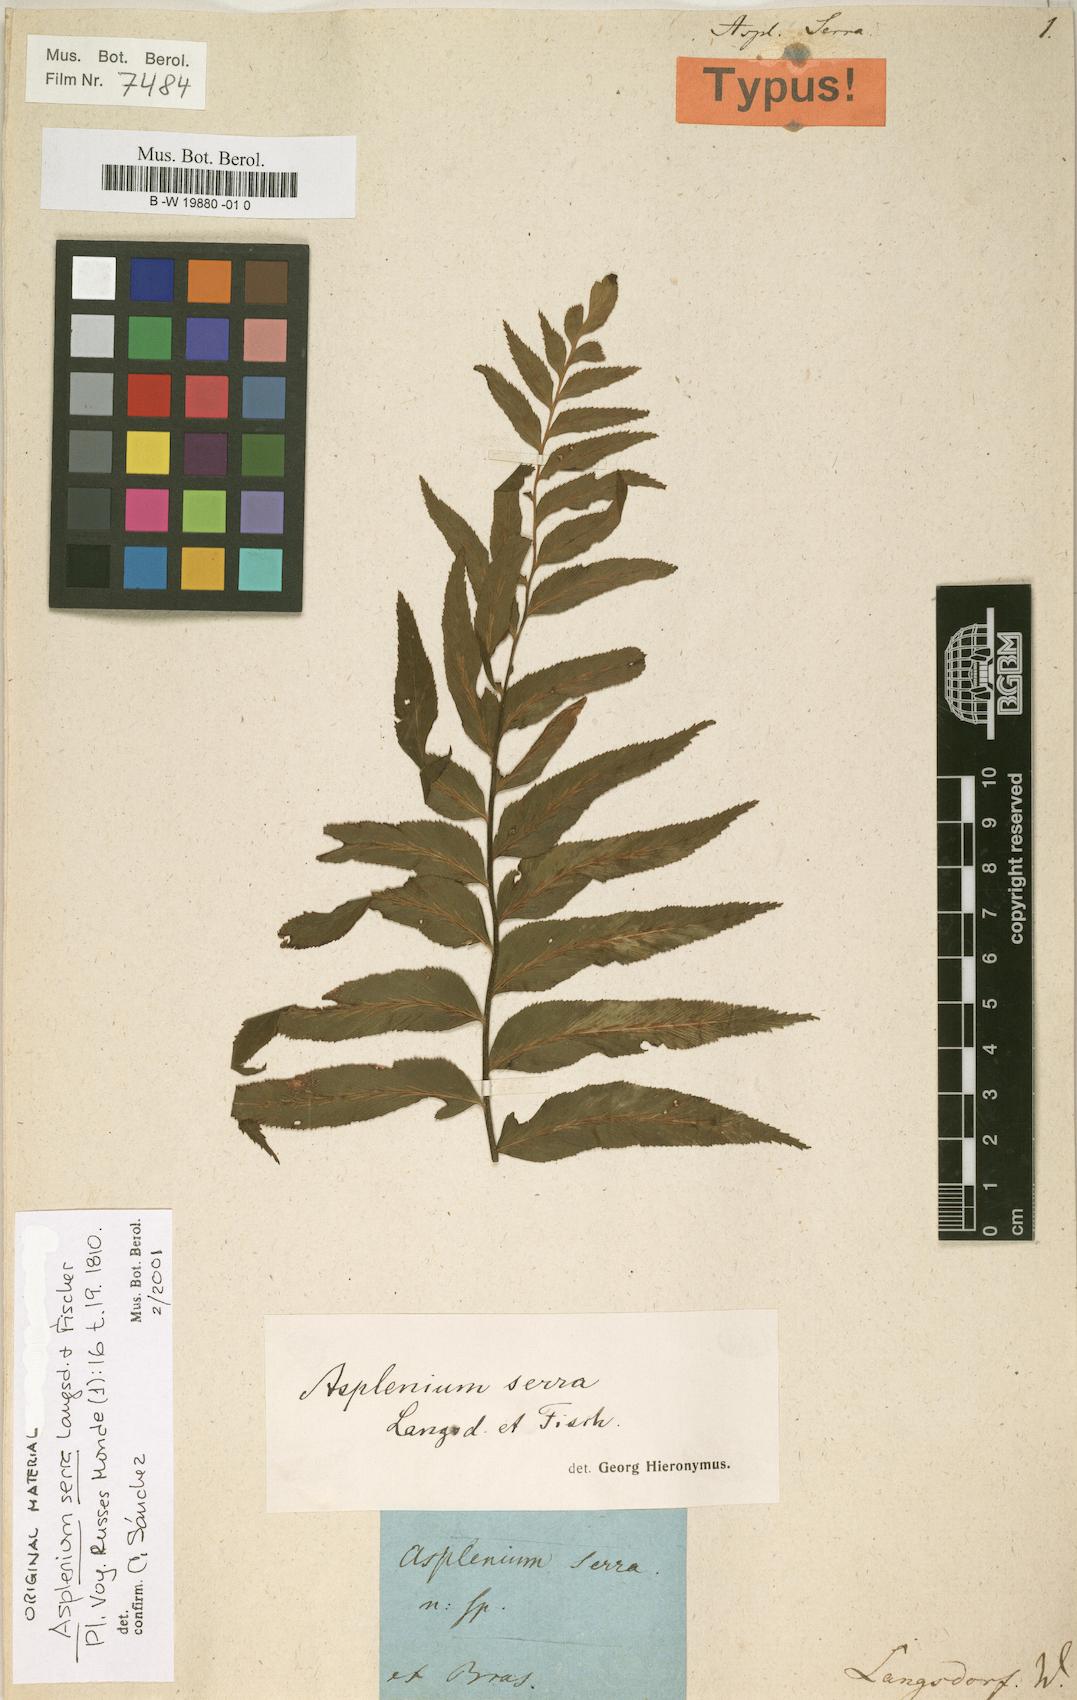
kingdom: Plantae
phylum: Tracheophyta
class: Polypodiopsida
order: Polypodiales
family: Aspleniaceae
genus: Asplenium
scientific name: Asplenium serra
